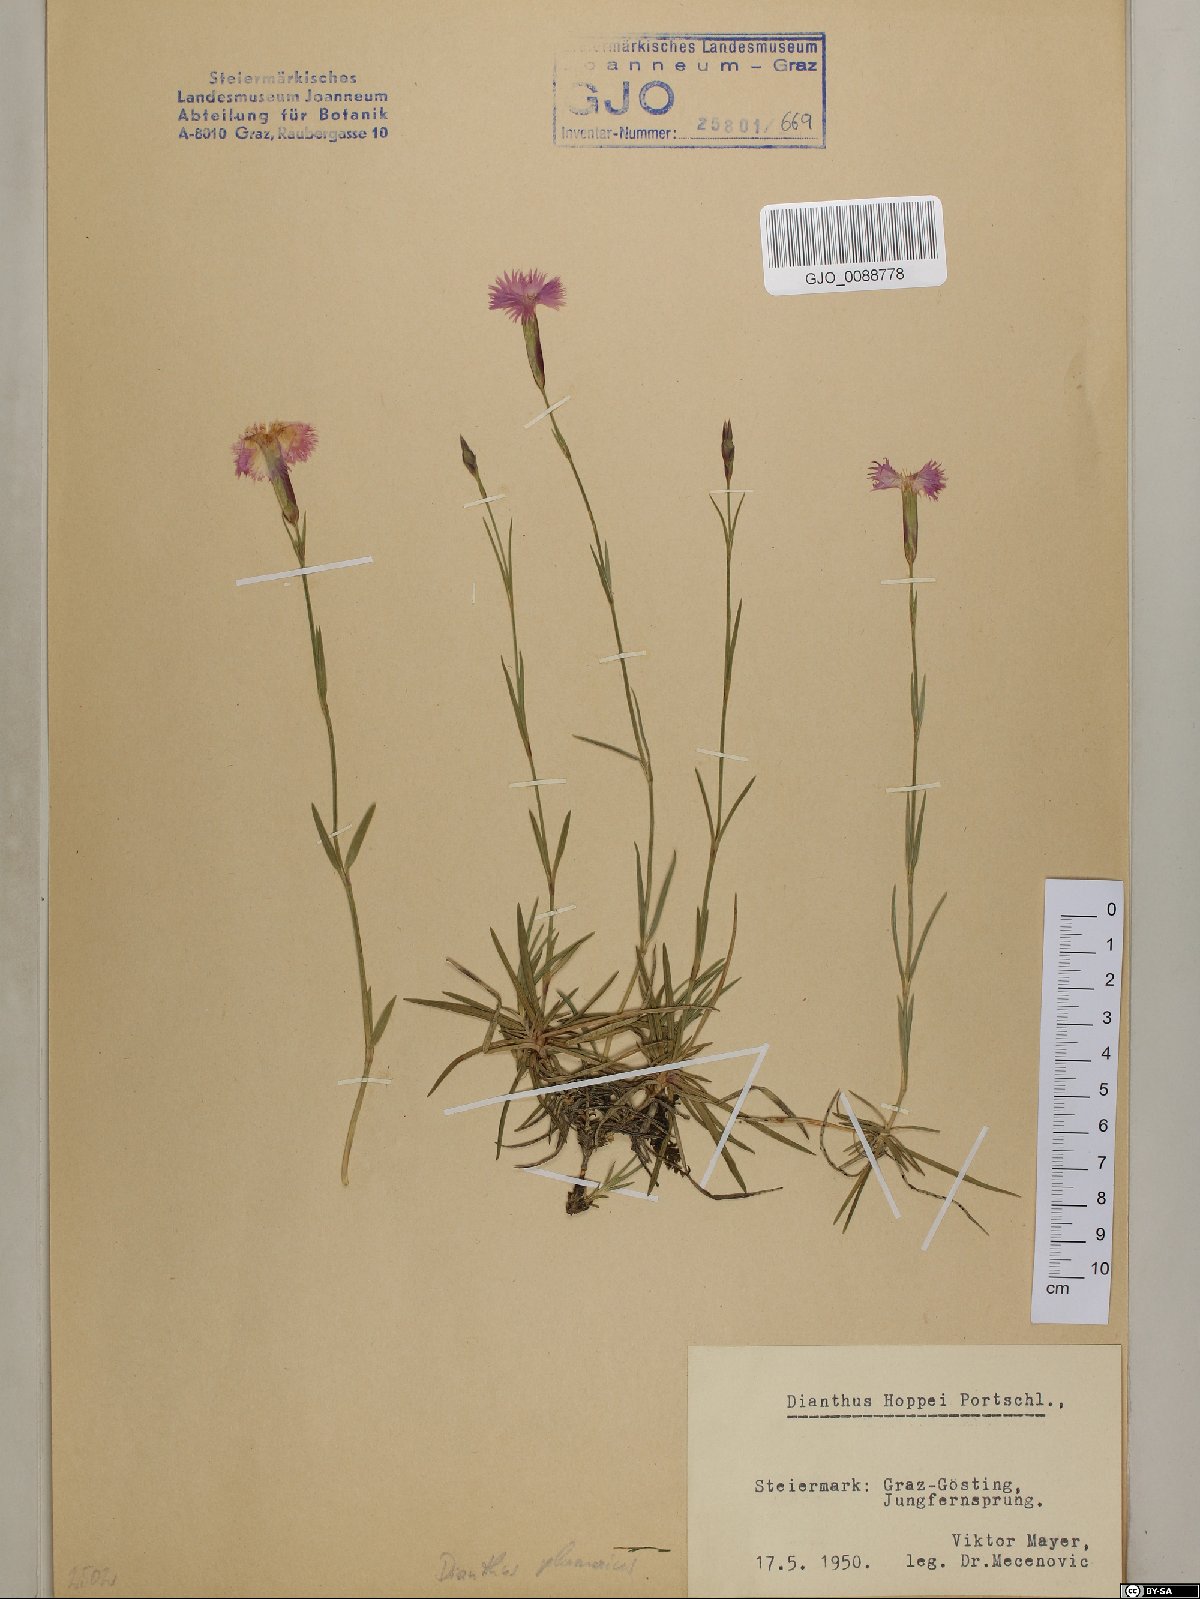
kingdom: Plantae
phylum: Tracheophyta
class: Magnoliopsida
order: Caryophyllales
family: Caryophyllaceae
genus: Dianthus
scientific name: Dianthus plumarius
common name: Pink
